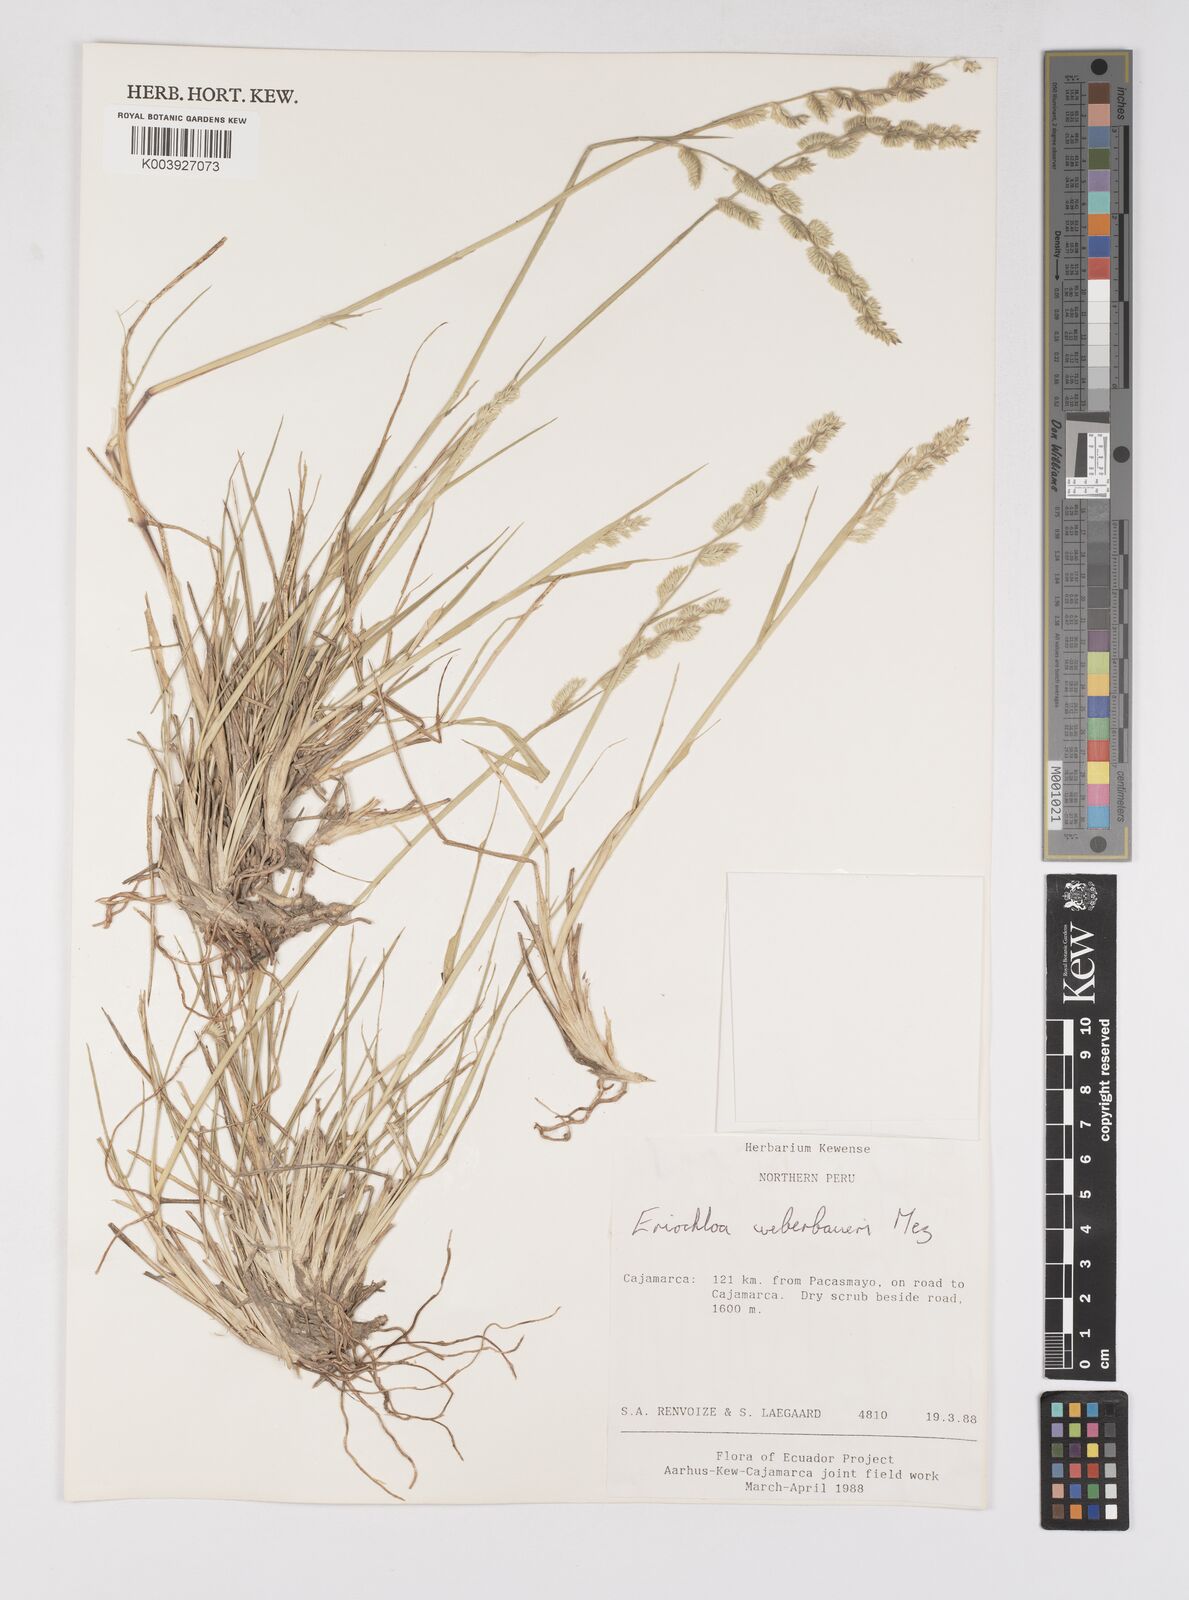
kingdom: Plantae
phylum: Tracheophyta
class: Liliopsida
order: Poales
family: Poaceae
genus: Eriochloa
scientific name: Eriochloa weberbaueri
